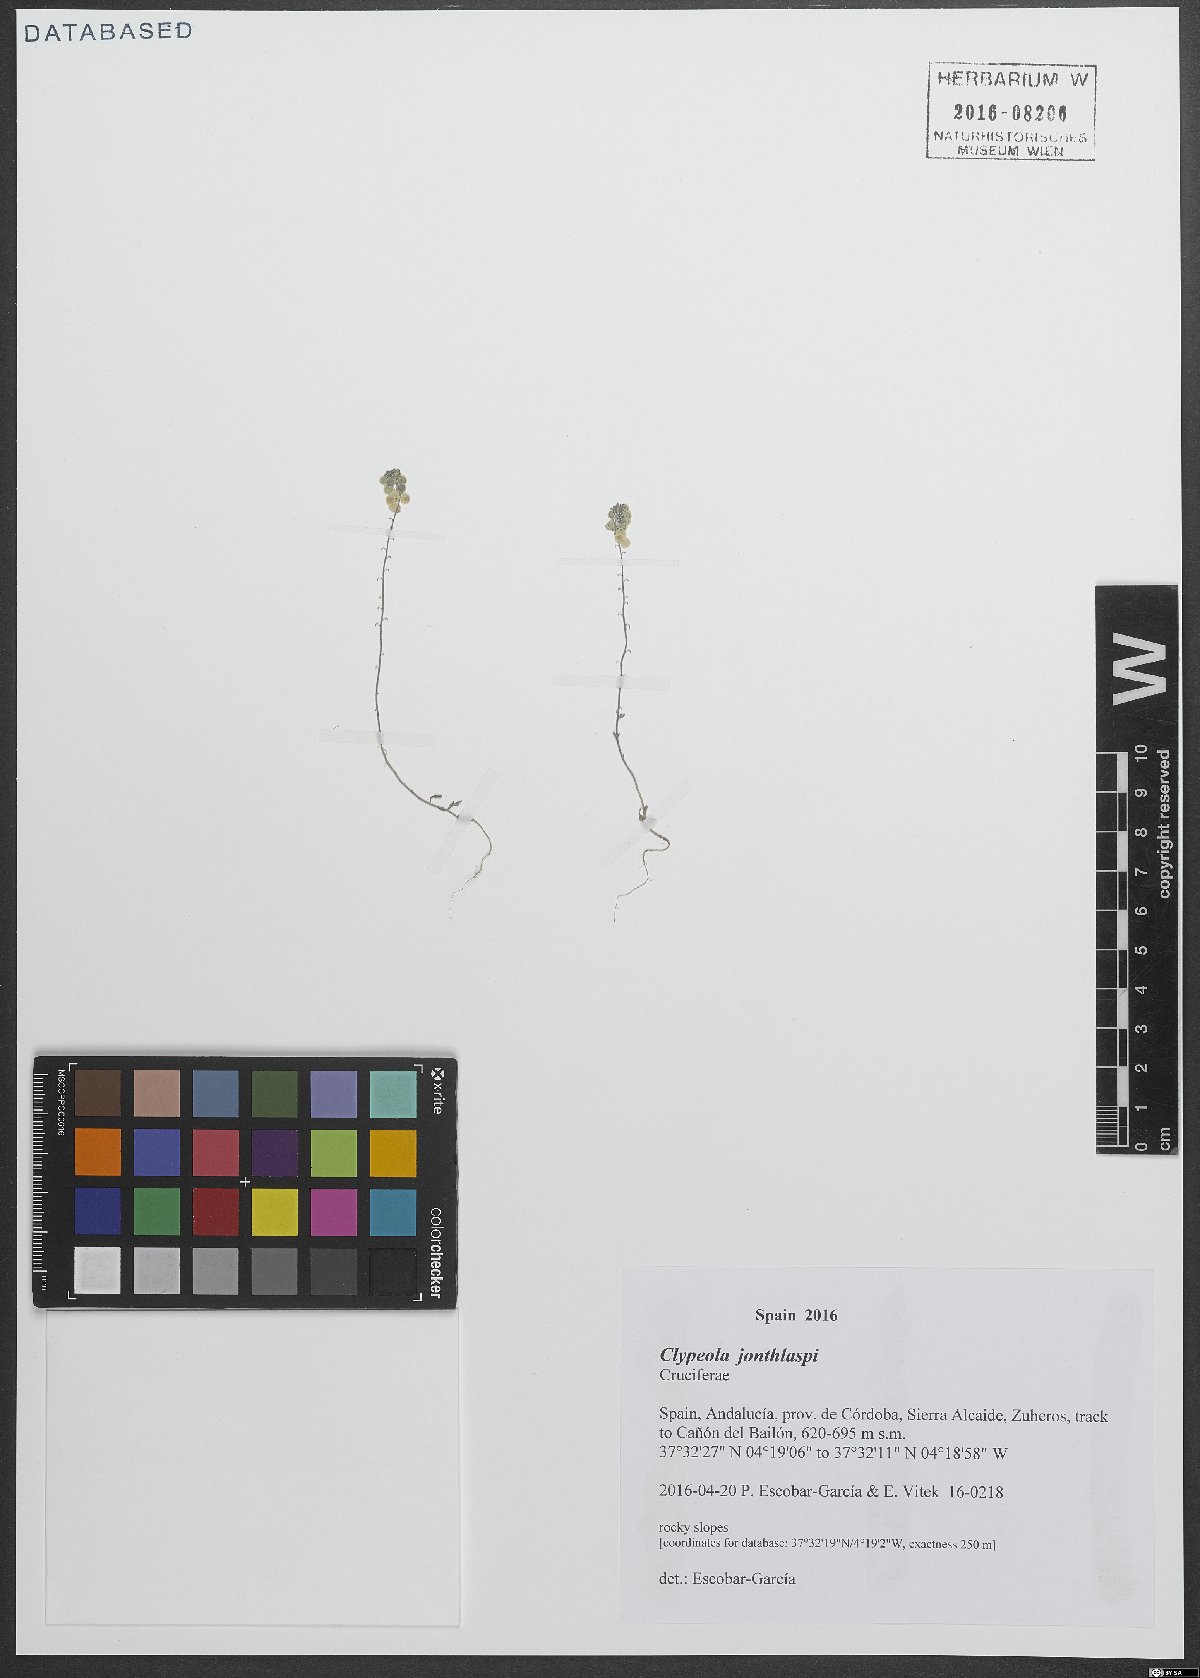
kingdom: Plantae
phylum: Tracheophyta
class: Magnoliopsida
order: Brassicales
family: Brassicaceae
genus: Clypeola
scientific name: Clypeola jonthlaspi
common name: Disk cress
